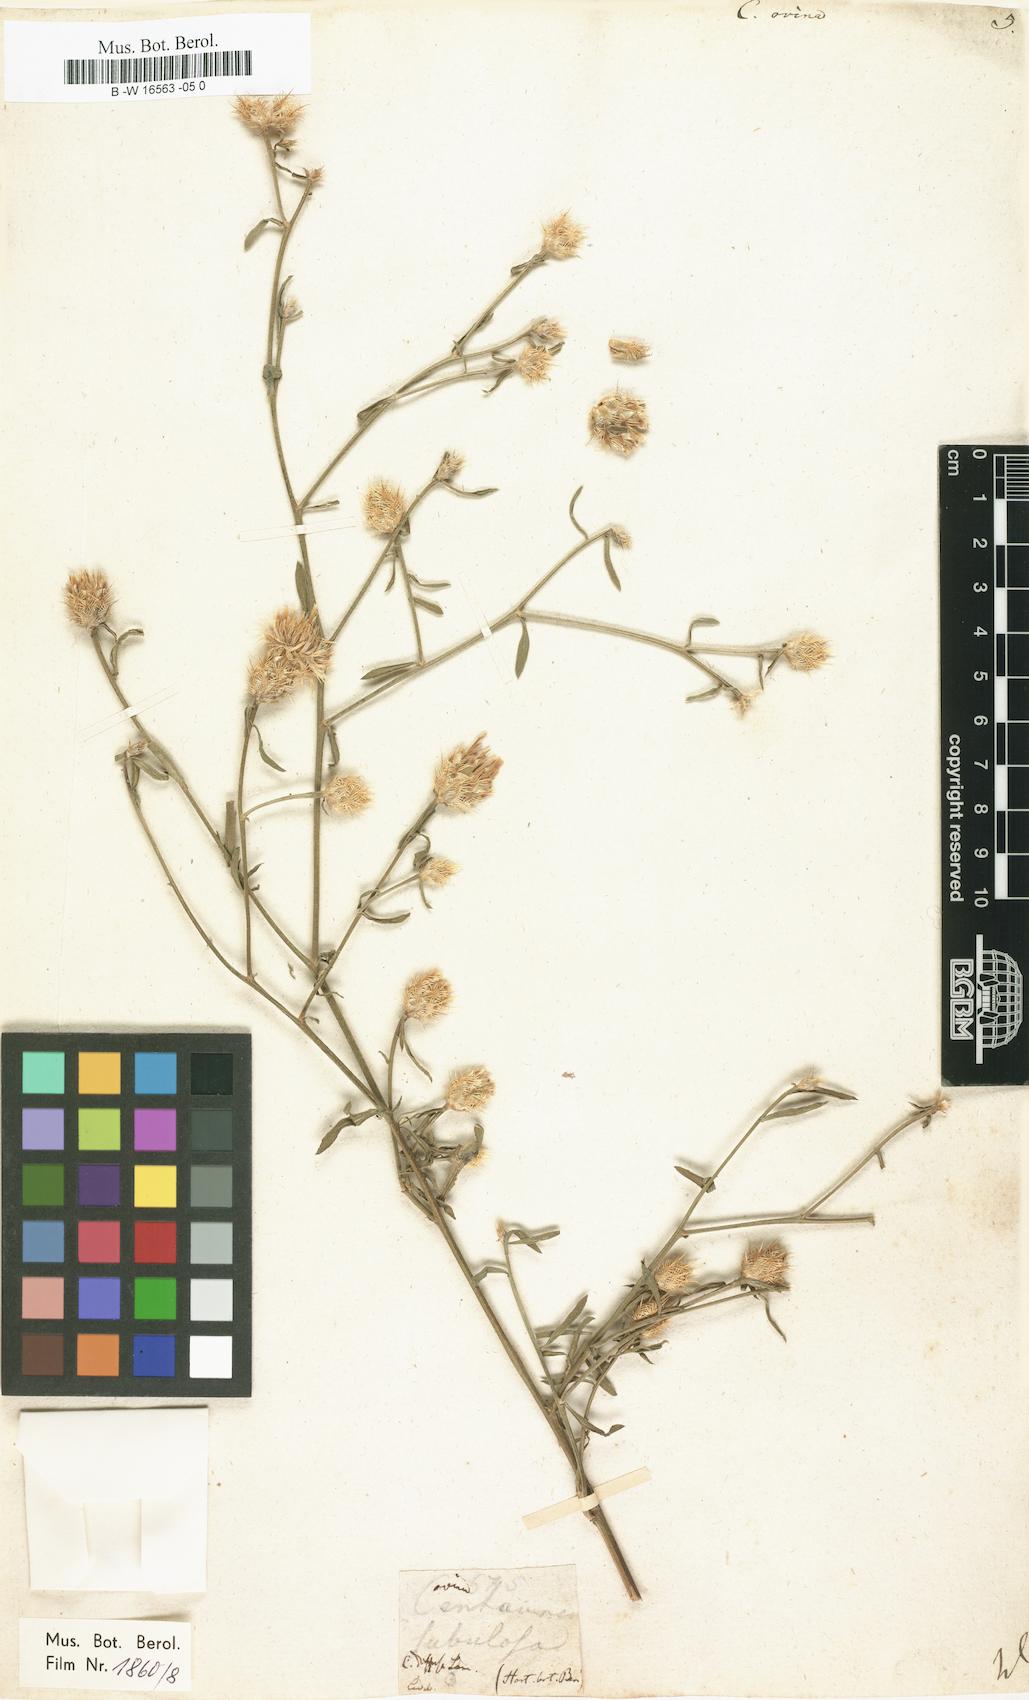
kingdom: Plantae
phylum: Tracheophyta
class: Magnoliopsida
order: Asterales
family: Asteraceae
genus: Centaurea
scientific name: Centaurea ovina
